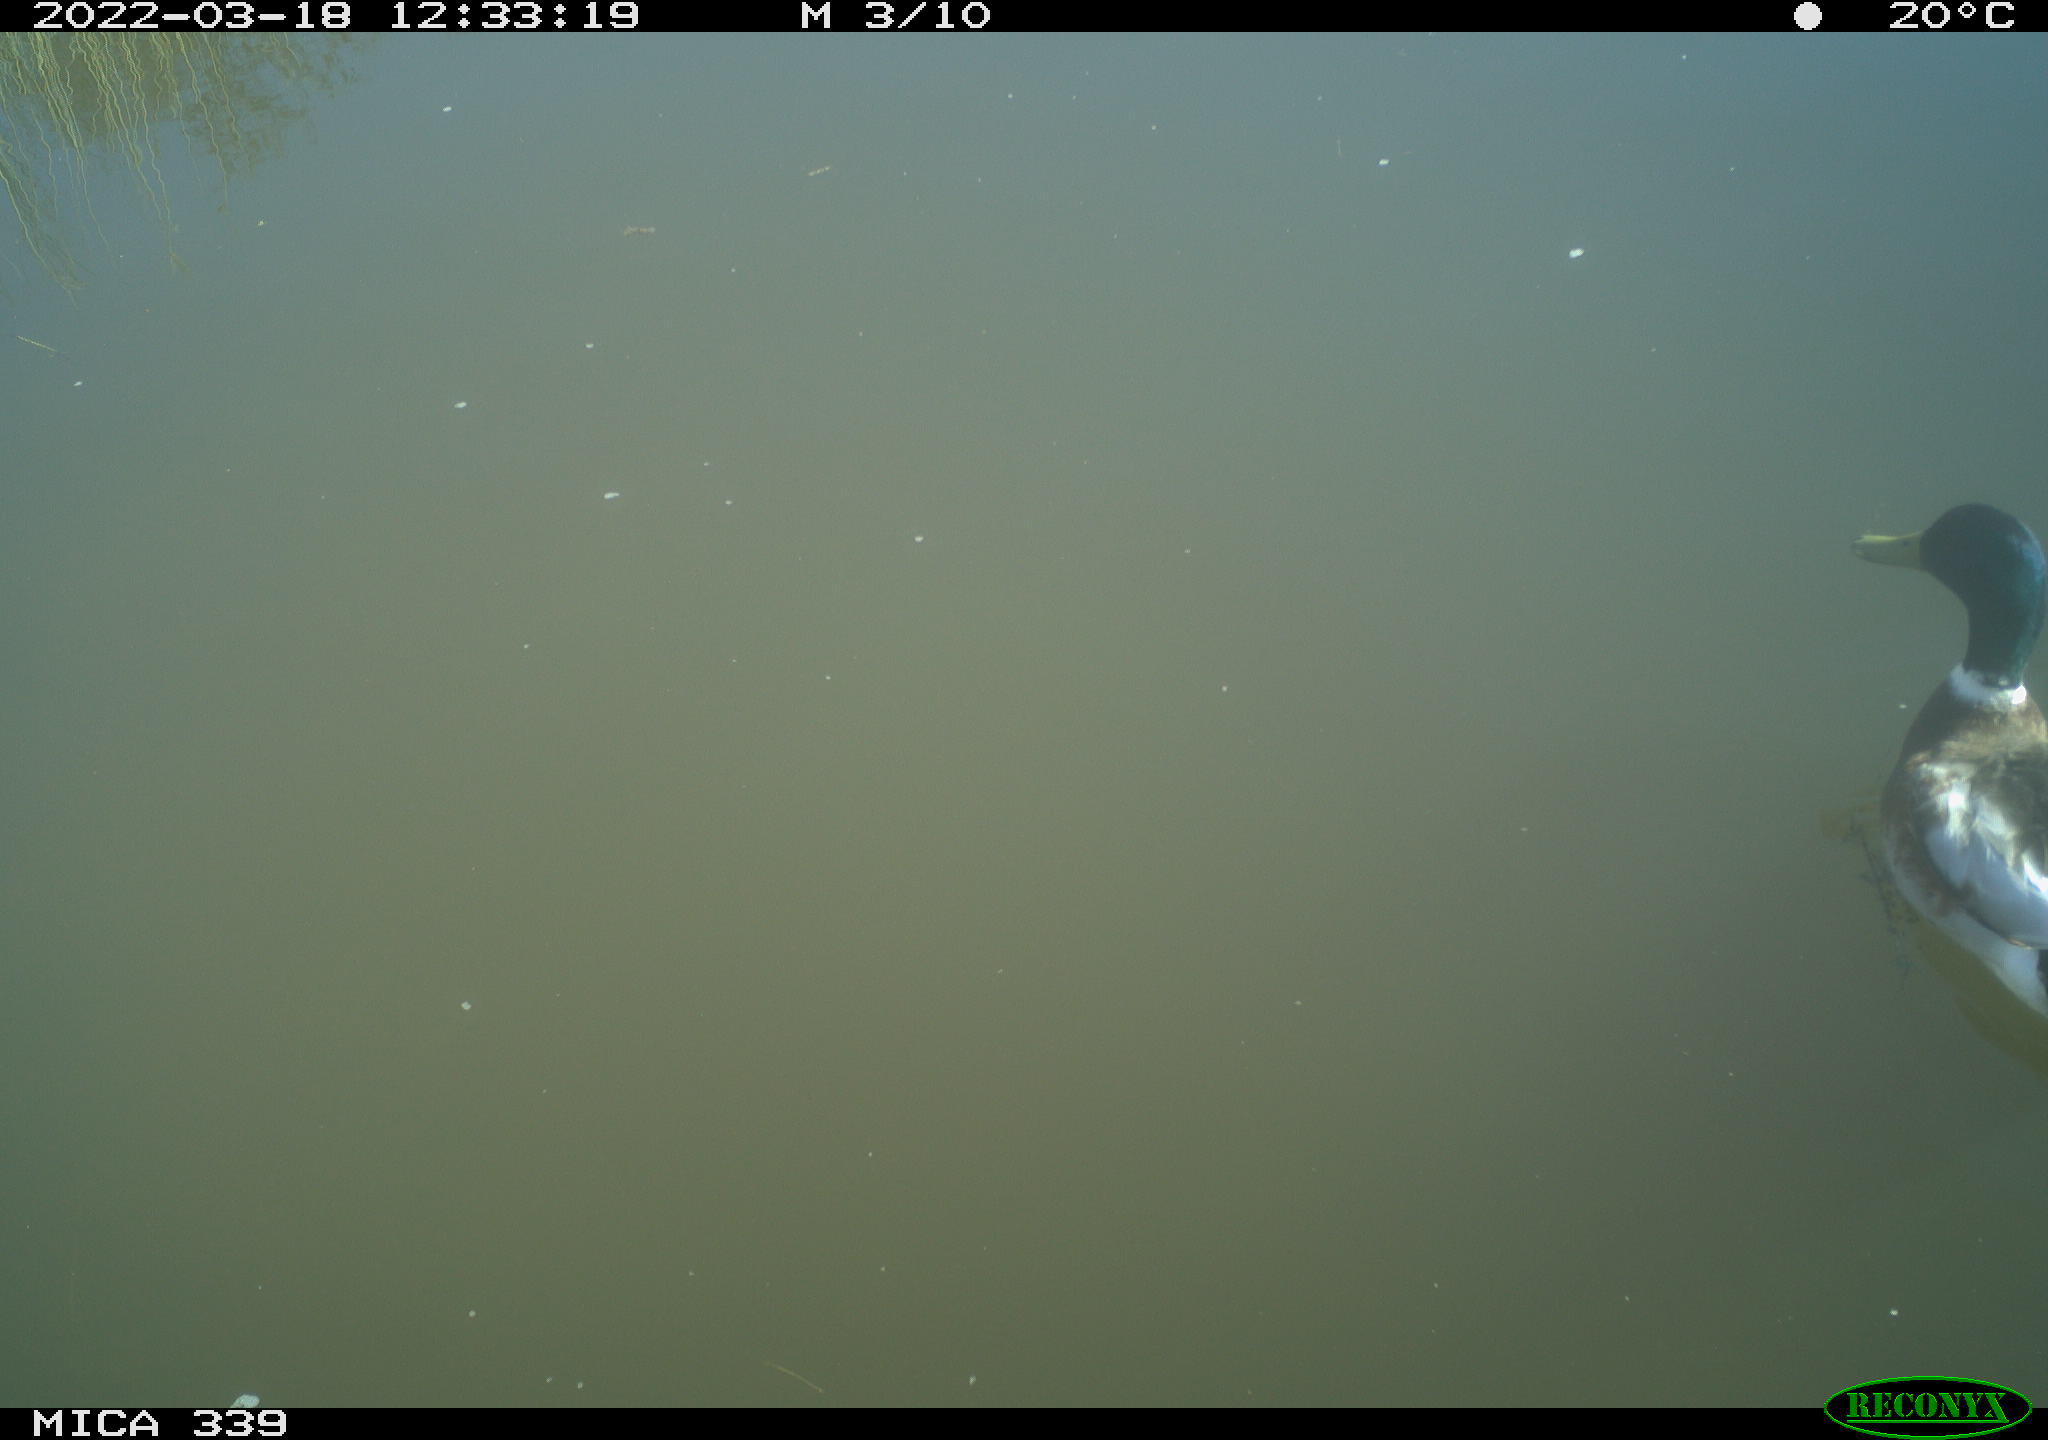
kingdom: Animalia
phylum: Chordata
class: Aves
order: Anseriformes
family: Anatidae
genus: Anas
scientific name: Anas platyrhynchos
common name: Mallard
